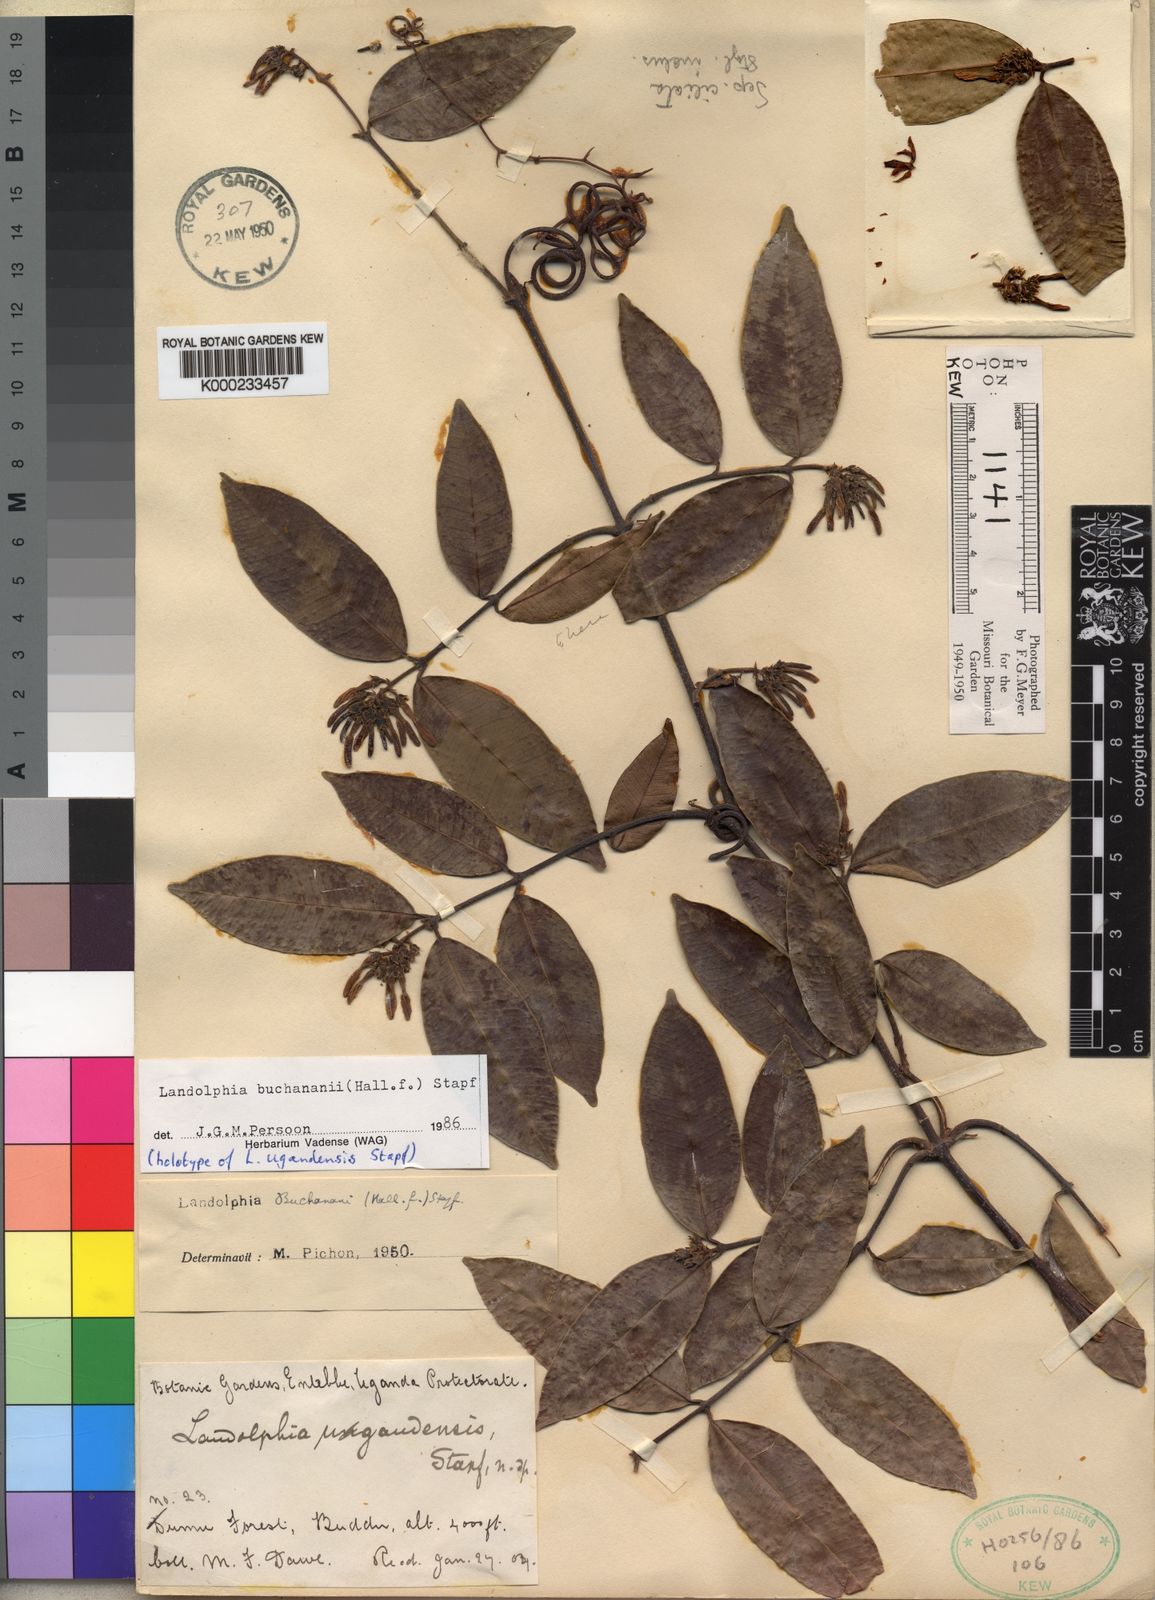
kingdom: Plantae
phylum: Tracheophyta
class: Magnoliopsida
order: Gentianales
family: Apocynaceae
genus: Landolphia
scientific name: Landolphia buchananii
